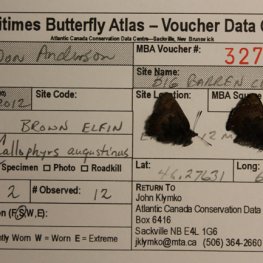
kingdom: Animalia
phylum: Arthropoda
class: Insecta
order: Lepidoptera
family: Lycaenidae
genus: Incisalia
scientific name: Incisalia irioides
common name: Brown Elfin
